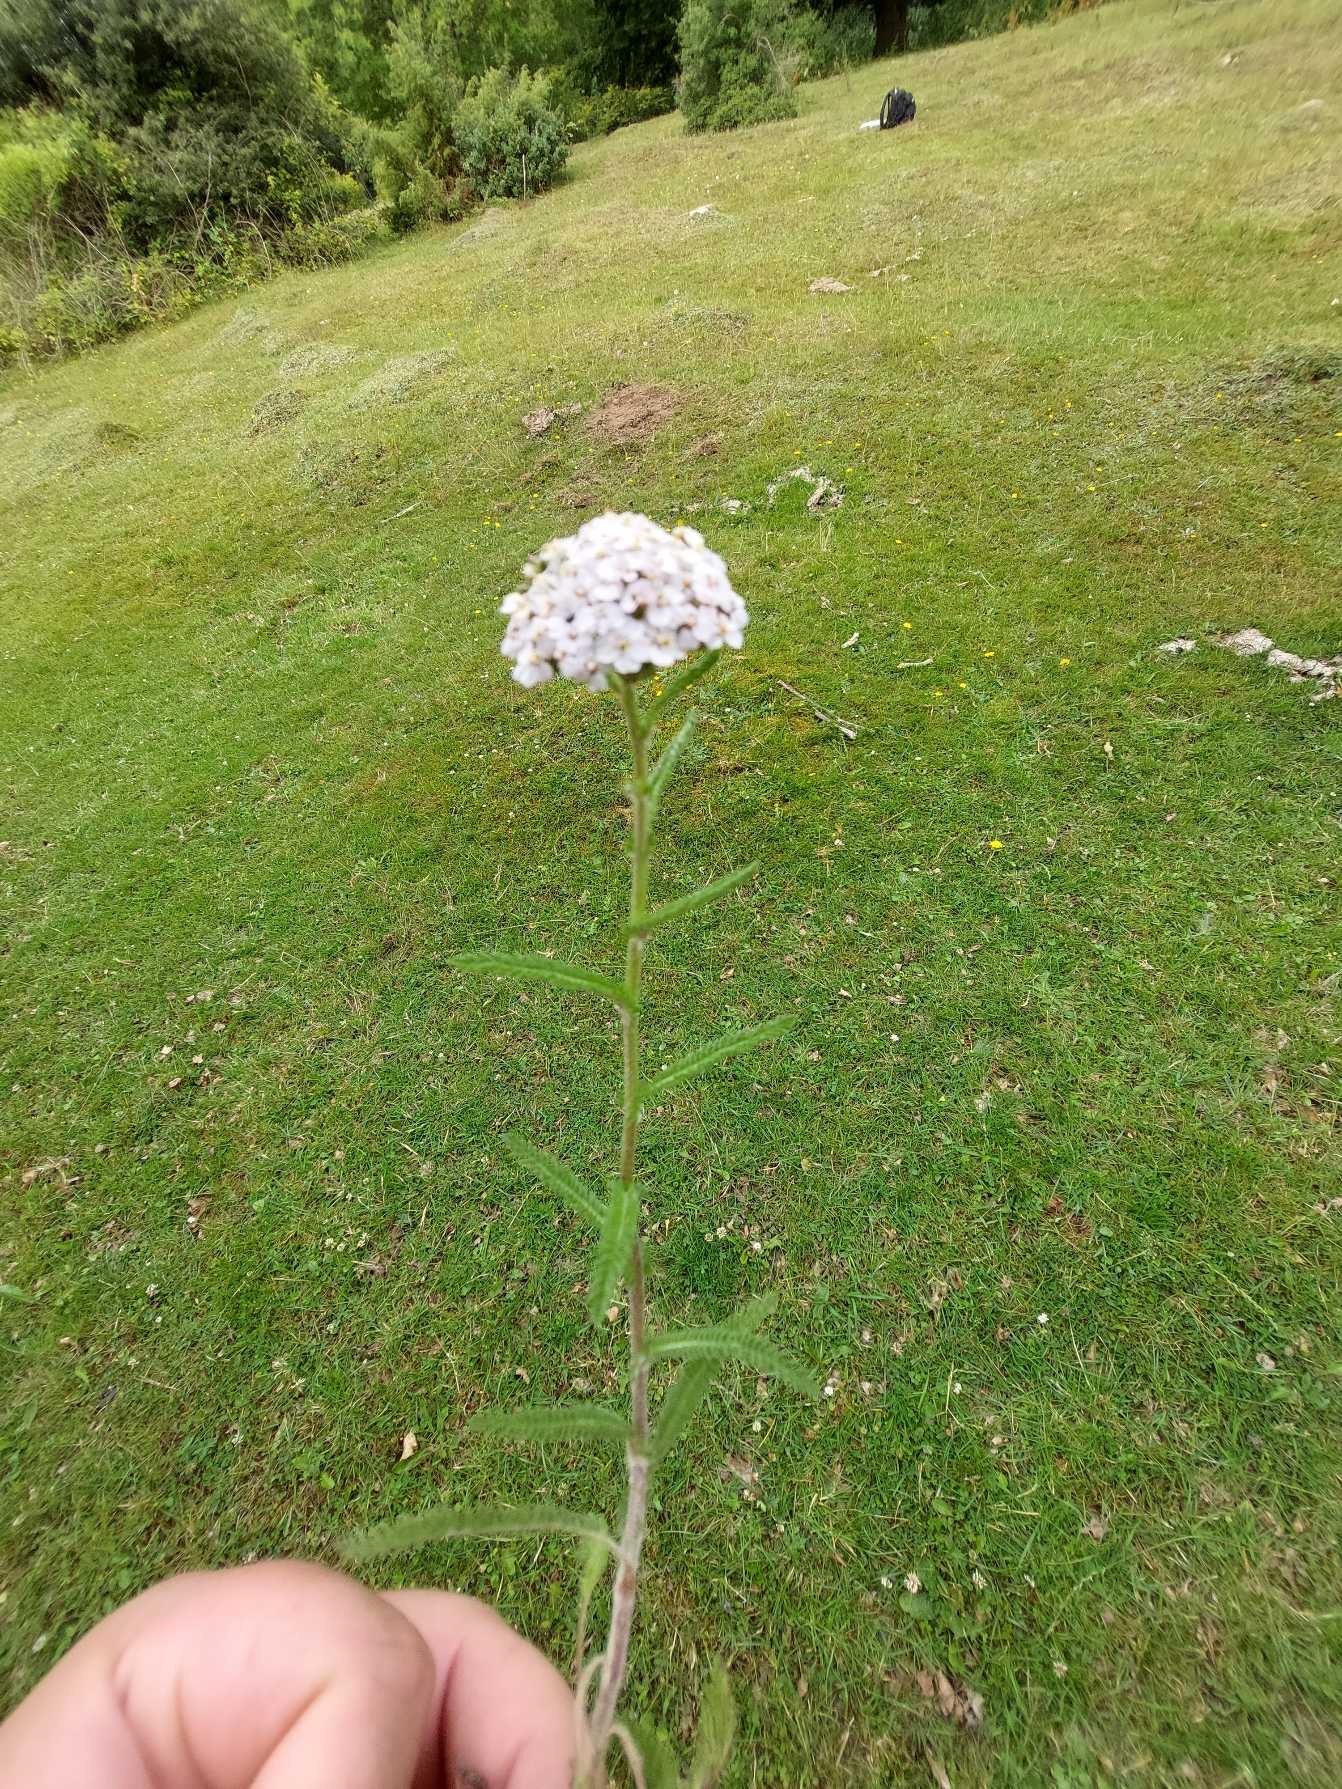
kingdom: Plantae
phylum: Tracheophyta
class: Magnoliopsida
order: Asterales
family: Asteraceae
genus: Achillea
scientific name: Achillea millefolium
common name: Almindelig røllike
